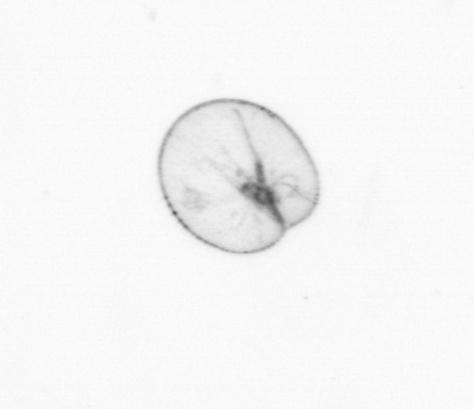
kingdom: Chromista
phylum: Myzozoa
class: Dinophyceae
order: Noctilucales
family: Noctilucaceae
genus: Noctiluca
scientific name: Noctiluca scintillans
